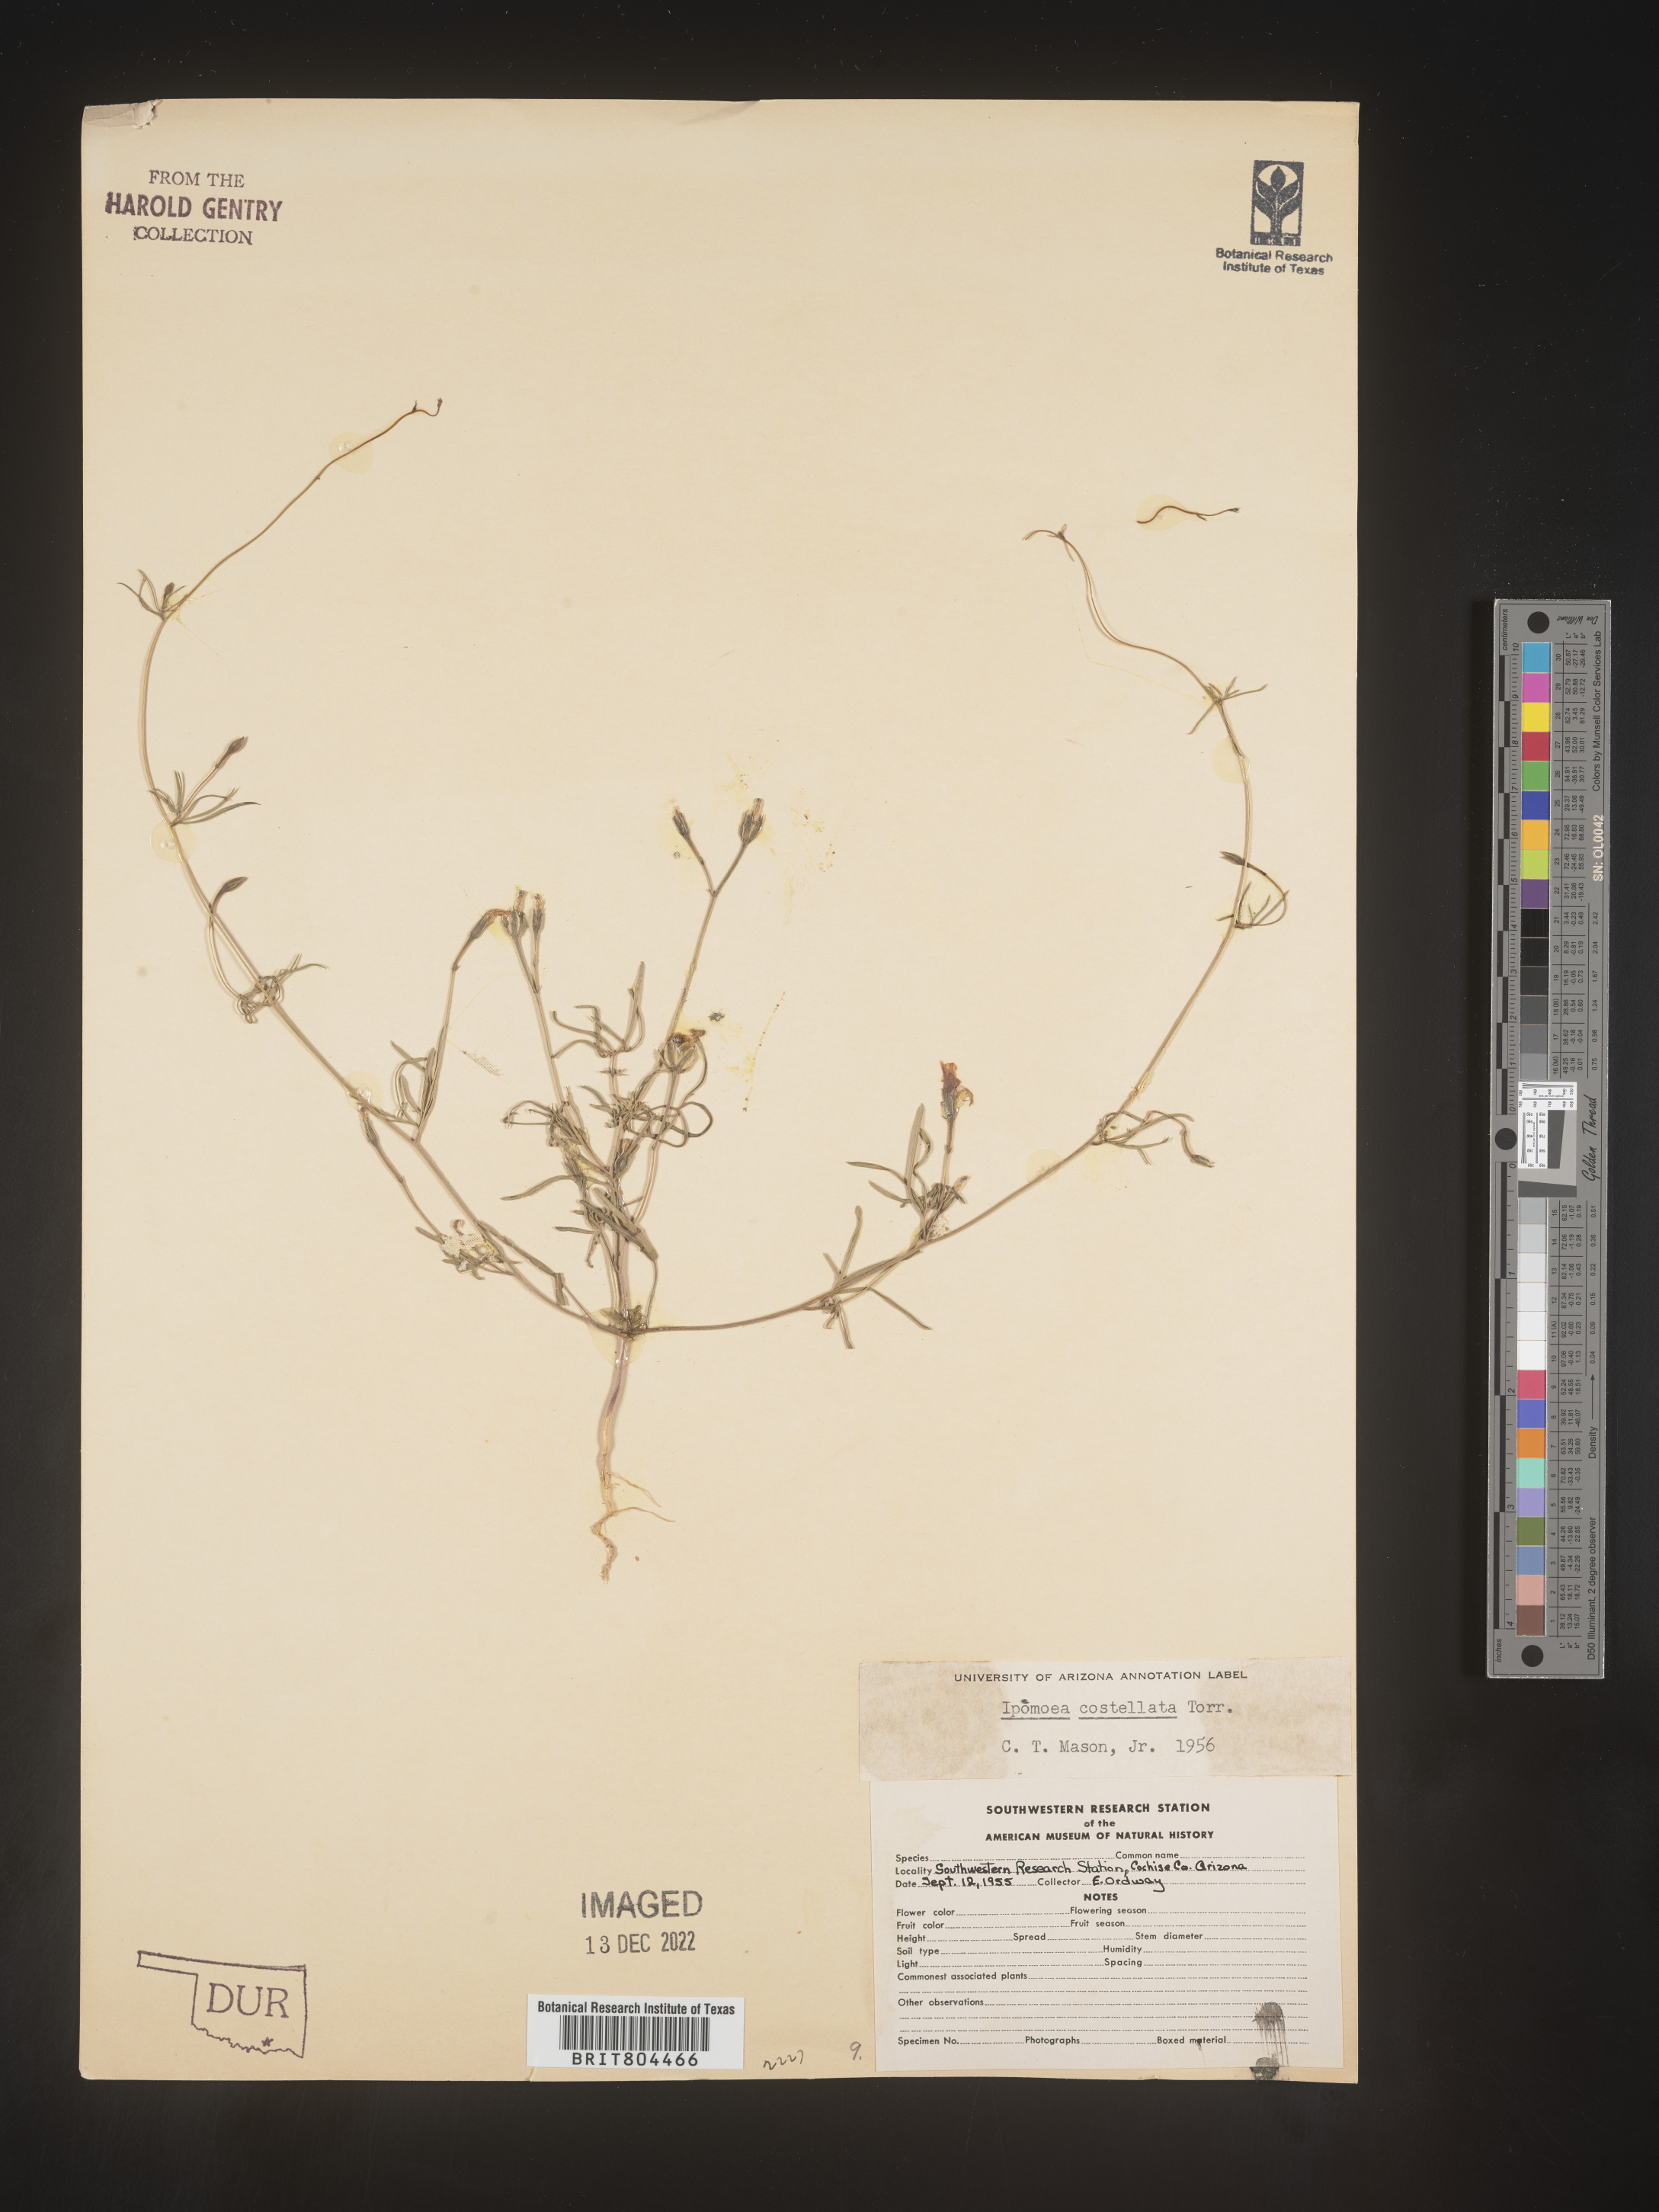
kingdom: Plantae
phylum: Tracheophyta
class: Magnoliopsida
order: Solanales
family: Convolvulaceae
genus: Ipomoea
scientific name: Ipomoea costellata
